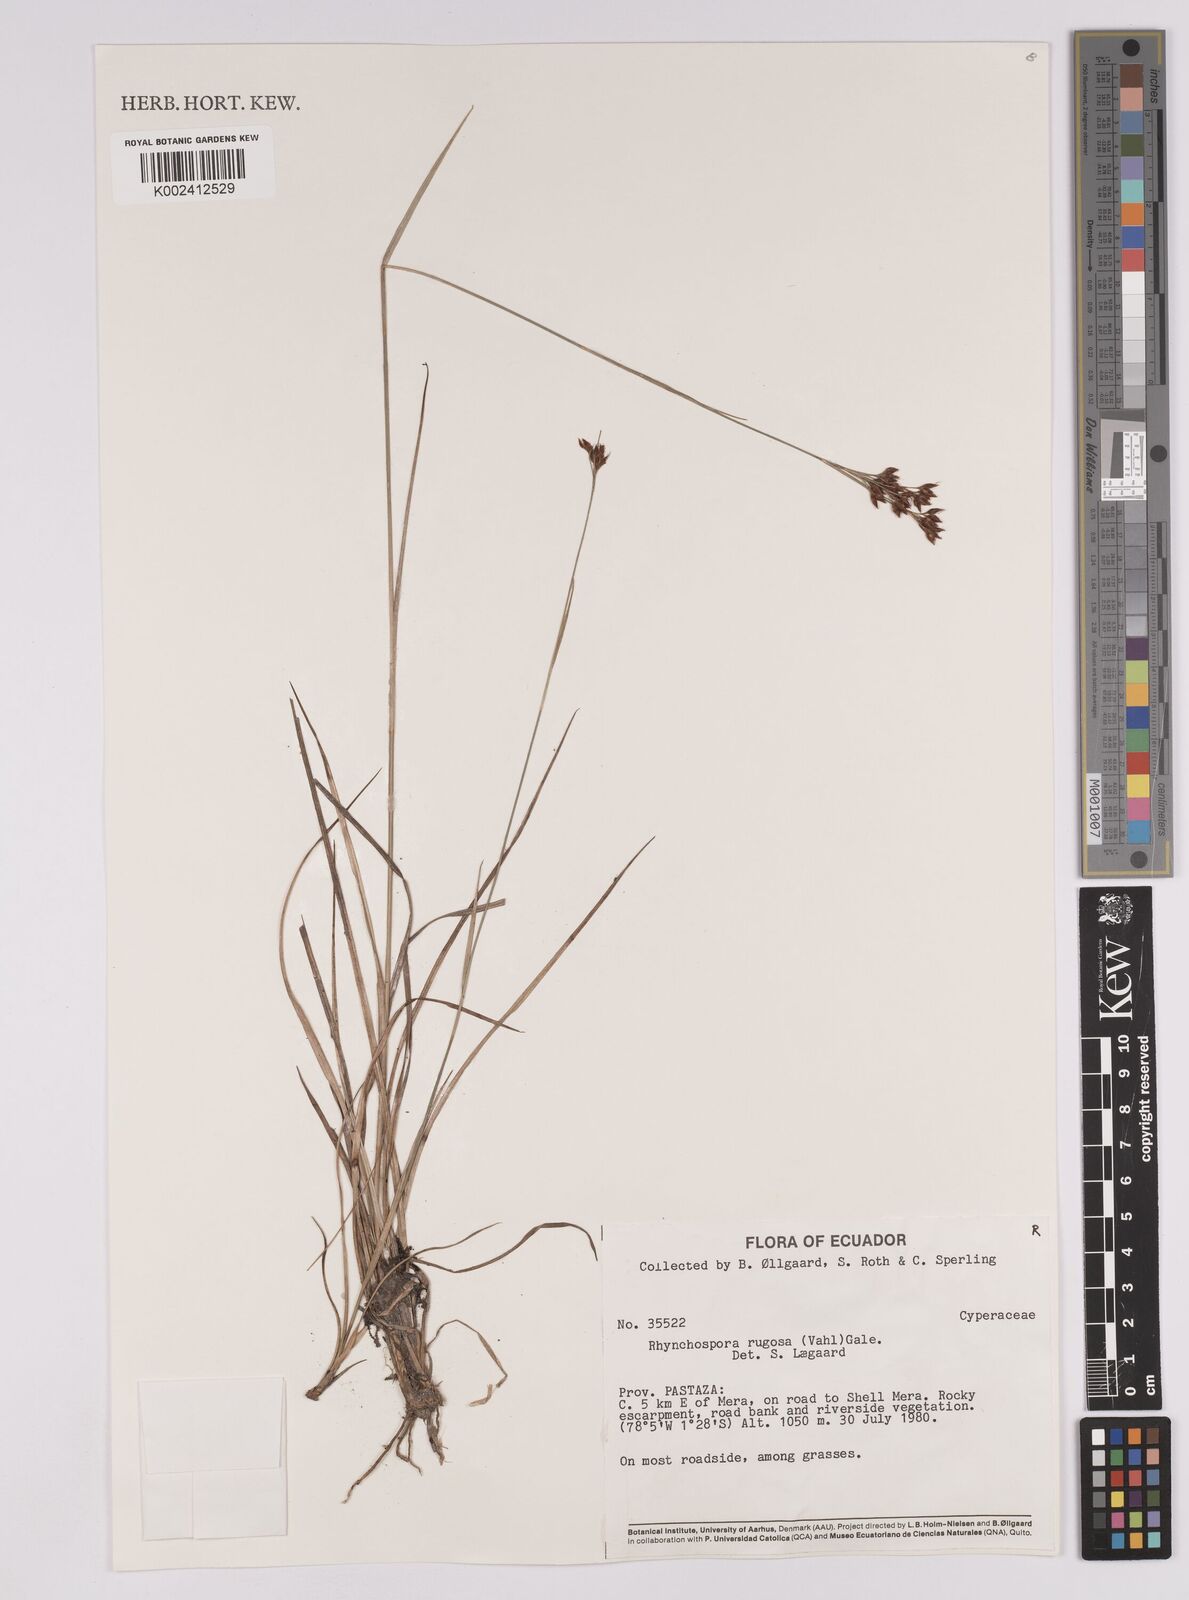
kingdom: Plantae
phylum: Tracheophyta
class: Liliopsida
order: Poales
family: Cyperaceae
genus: Rhynchospora
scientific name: Rhynchospora rugosa
